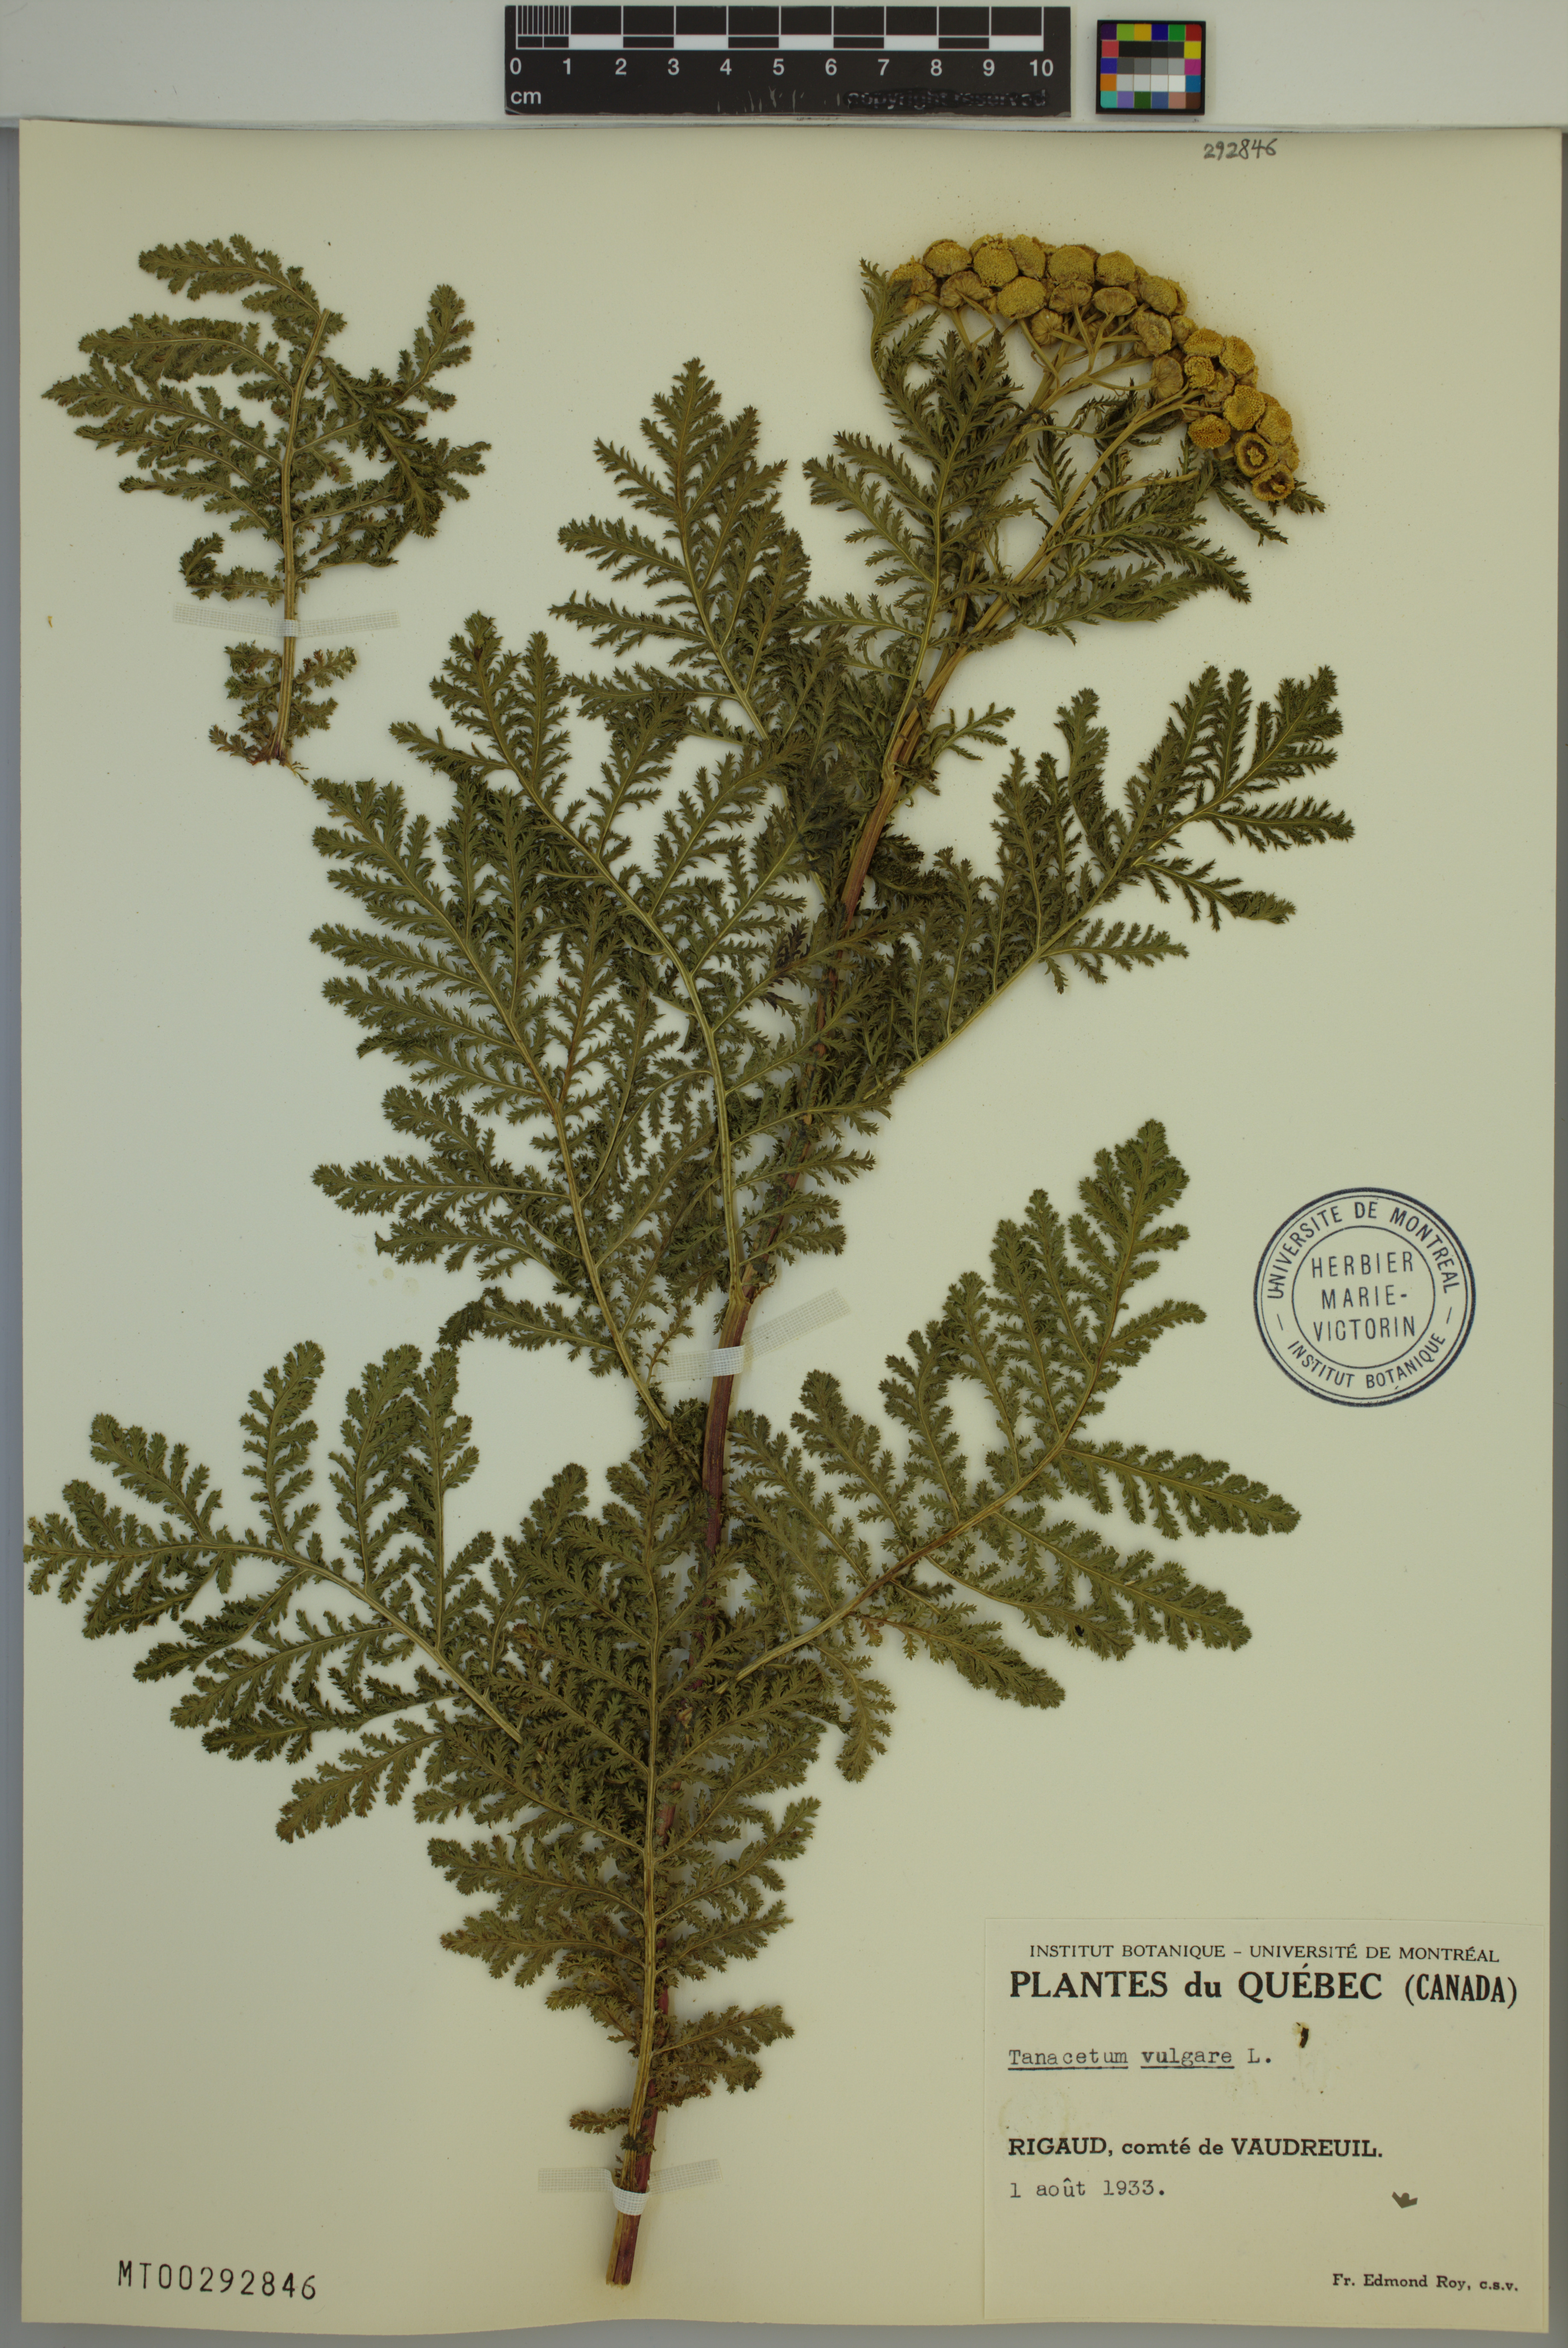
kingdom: Plantae
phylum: Tracheophyta
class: Magnoliopsida
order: Asterales
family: Asteraceae
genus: Tanacetum
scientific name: Tanacetum vulgare
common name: Common tansy
